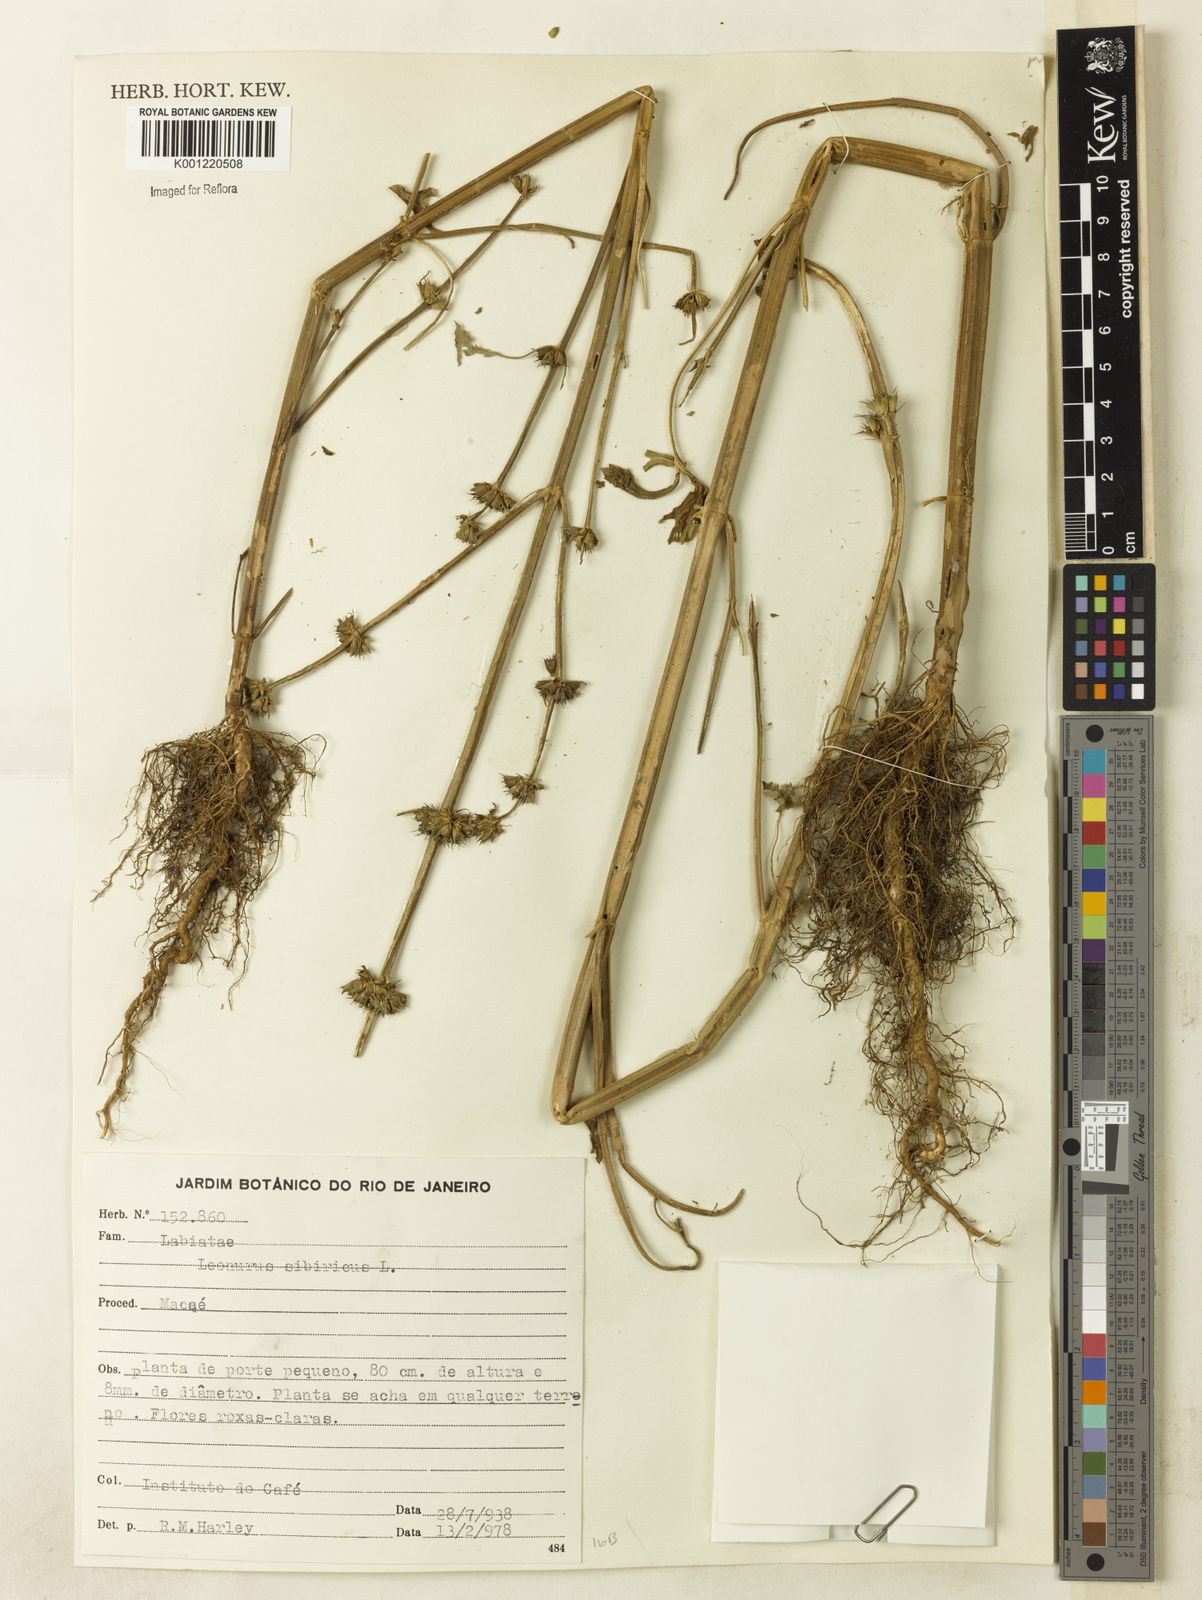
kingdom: Plantae
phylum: Tracheophyta
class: Magnoliopsida
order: Lamiales
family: Lamiaceae
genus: Leonurus
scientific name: Leonurus japonicus
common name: Honeyweed
